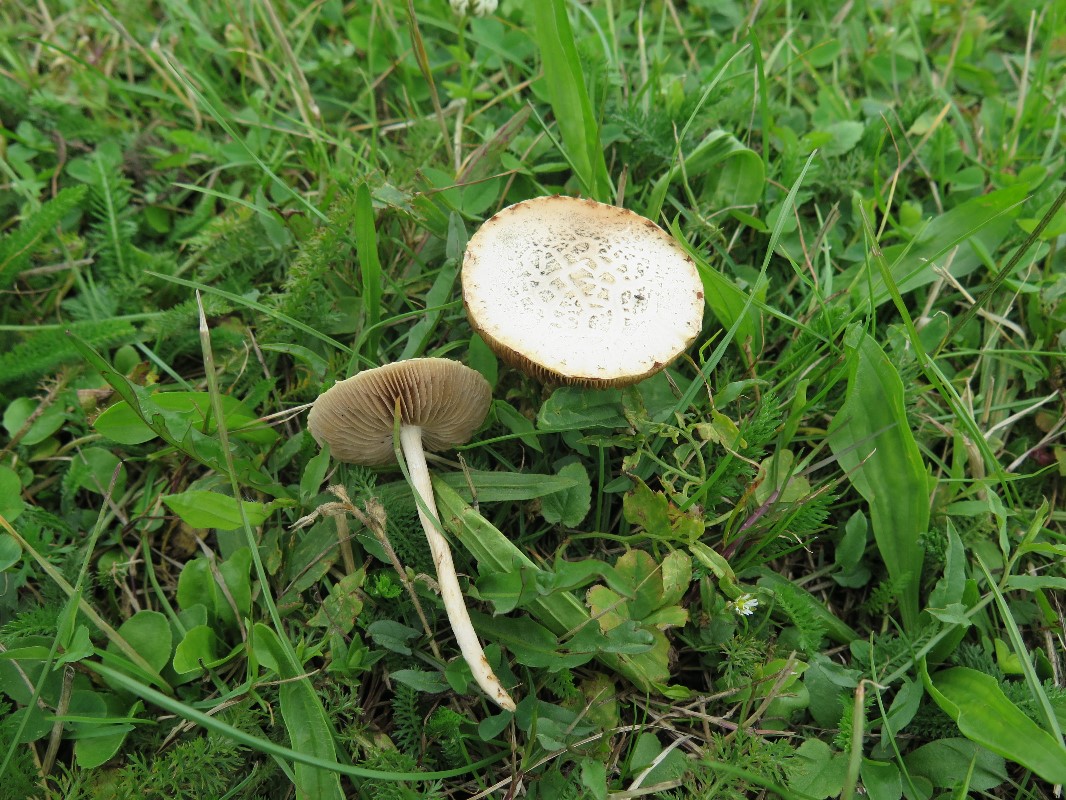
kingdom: Fungi
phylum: Basidiomycota
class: Agaricomycetes
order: Agaricales
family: Strophariaceae
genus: Agrocybe
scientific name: Agrocybe dura
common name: fastkødet agerhat
